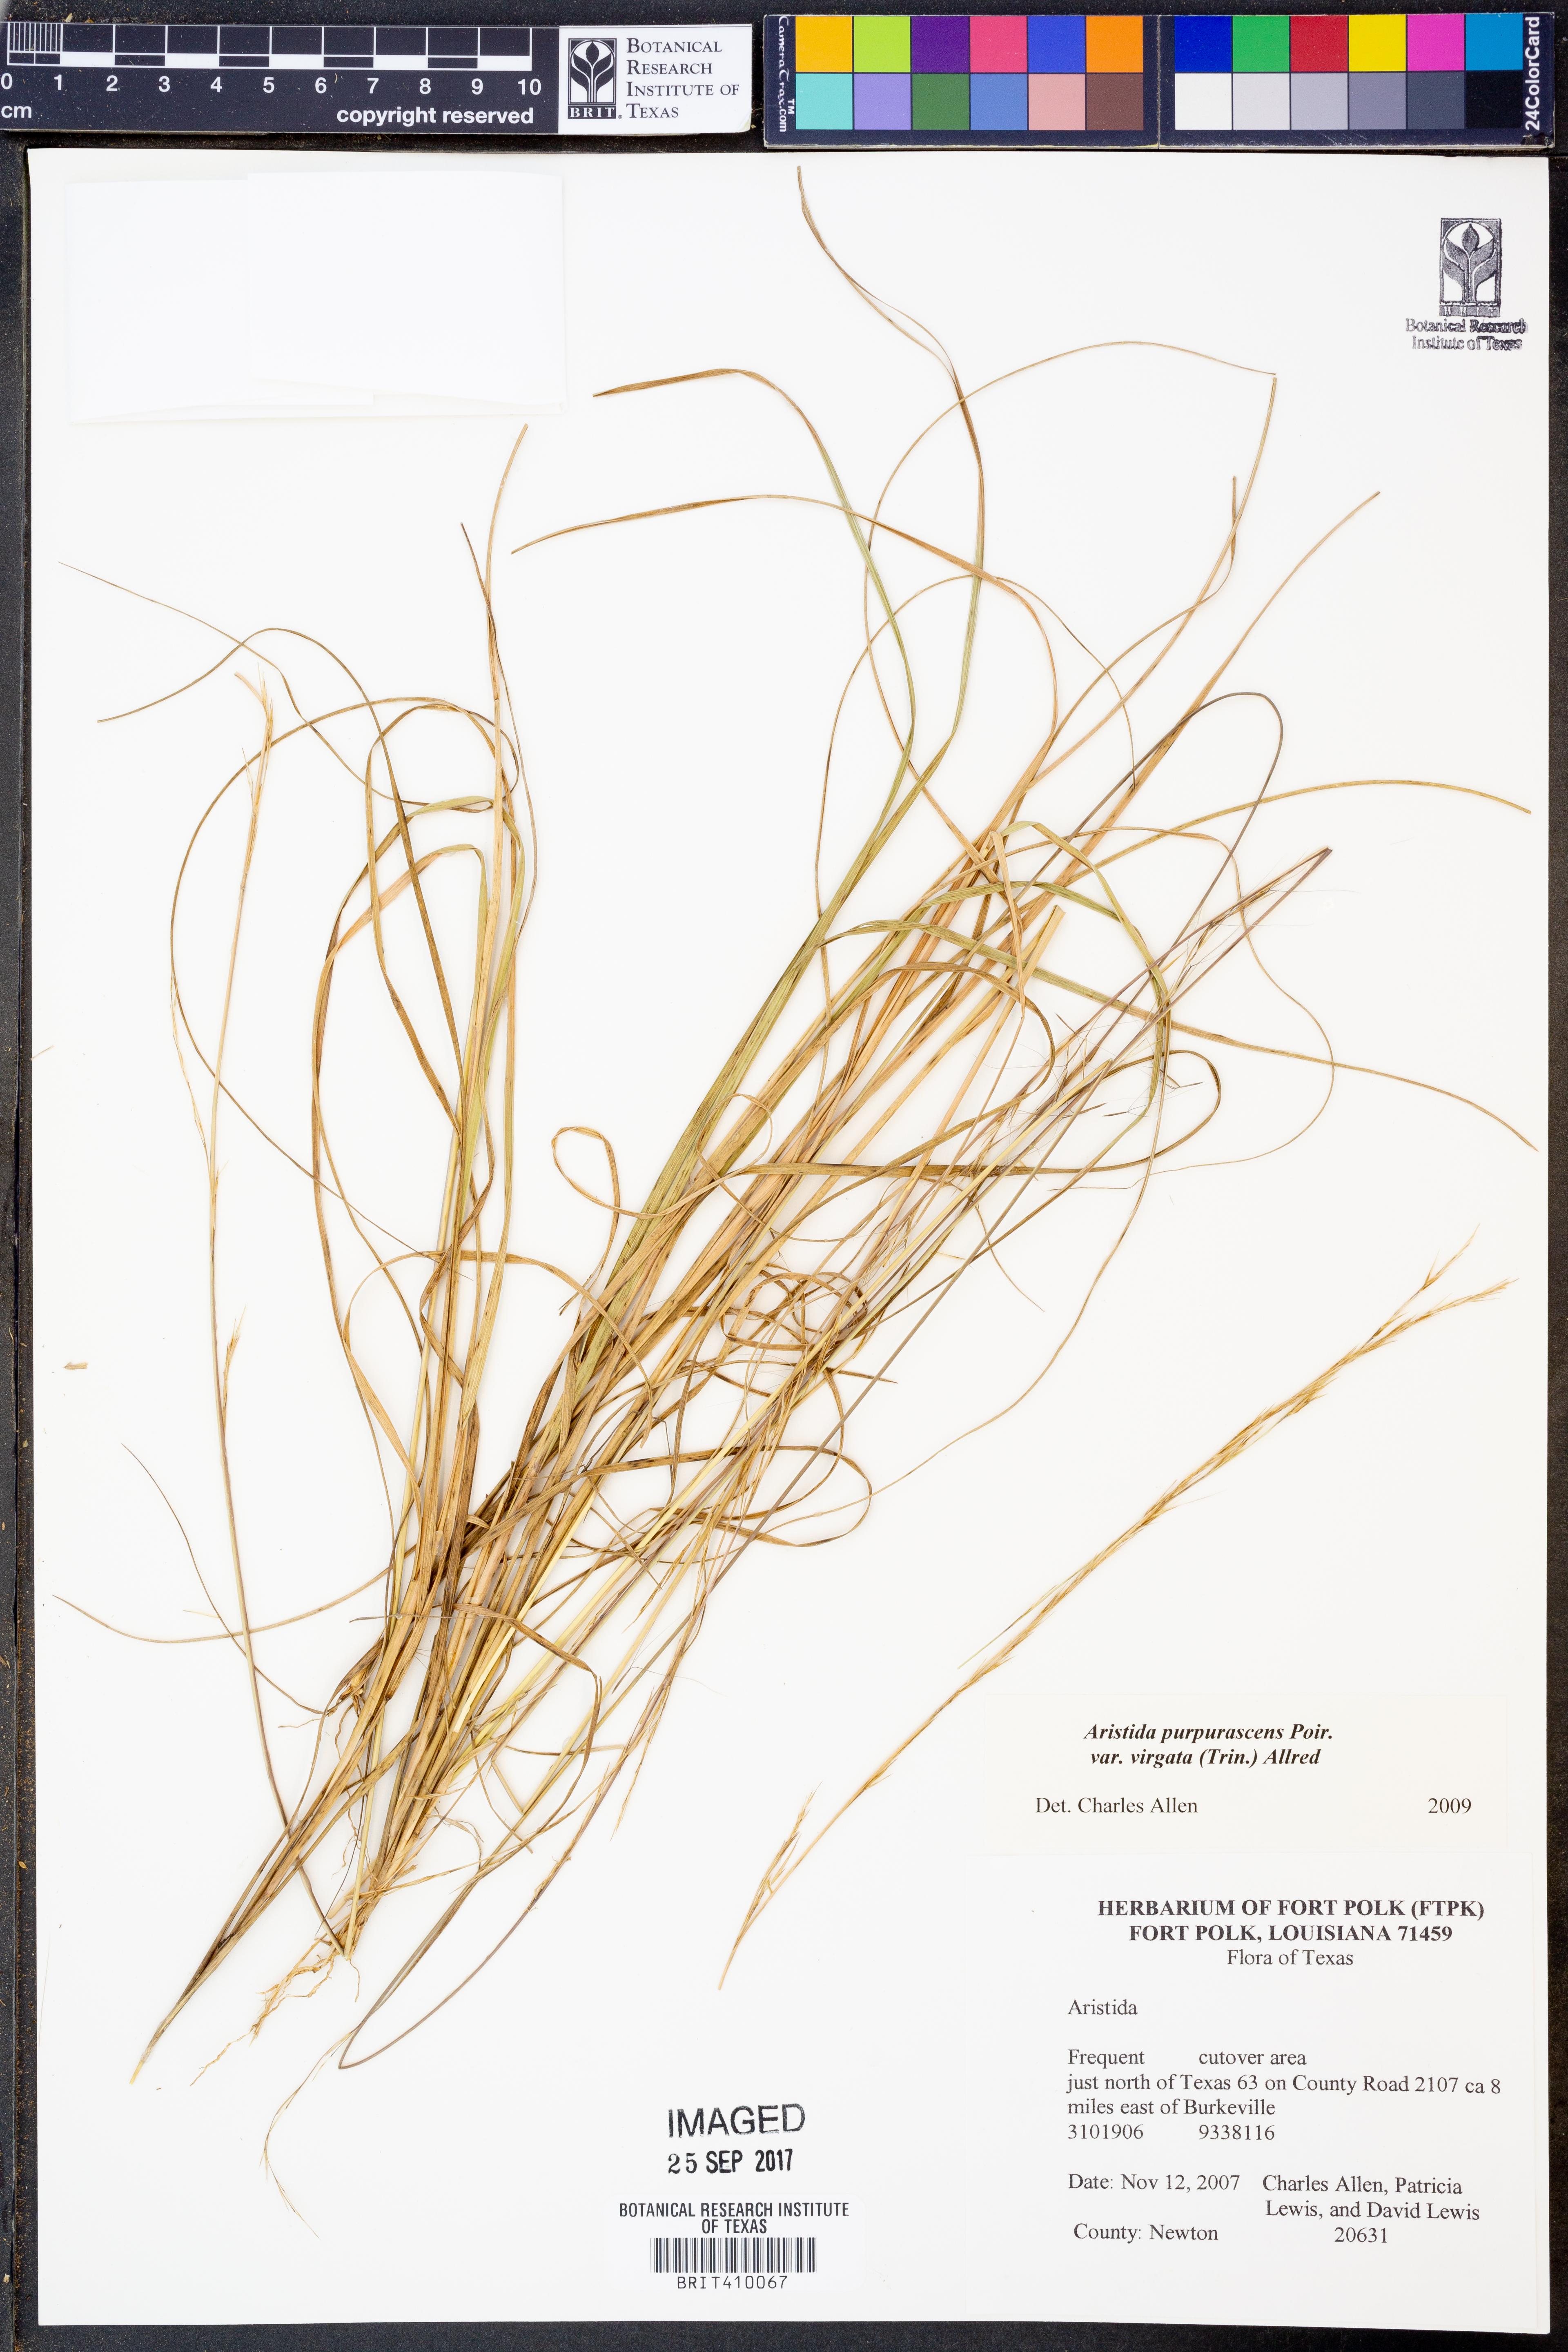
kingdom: Plantae
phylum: Tracheophyta
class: Liliopsida
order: Poales
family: Poaceae
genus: Aristida
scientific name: Aristida virgata
